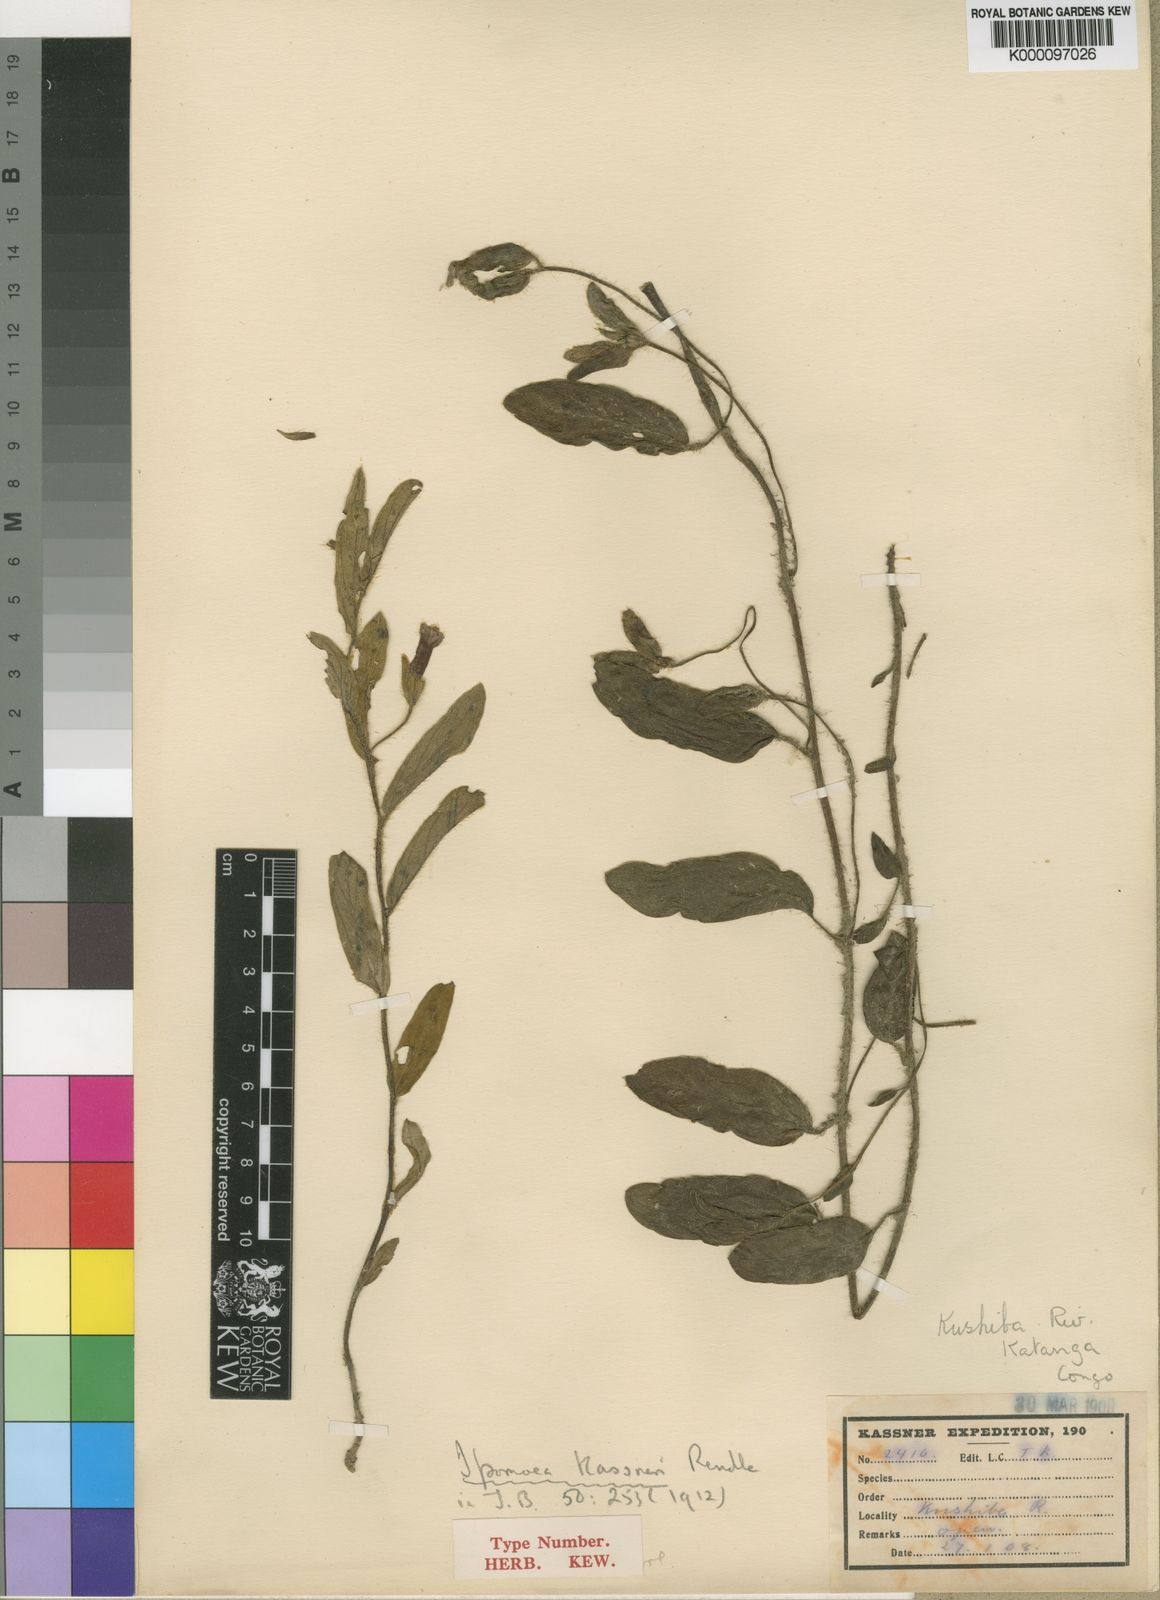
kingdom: Plantae
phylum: Tracheophyta
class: Magnoliopsida
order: Solanales
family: Convolvulaceae
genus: Ipomoea
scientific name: Ipomoea
